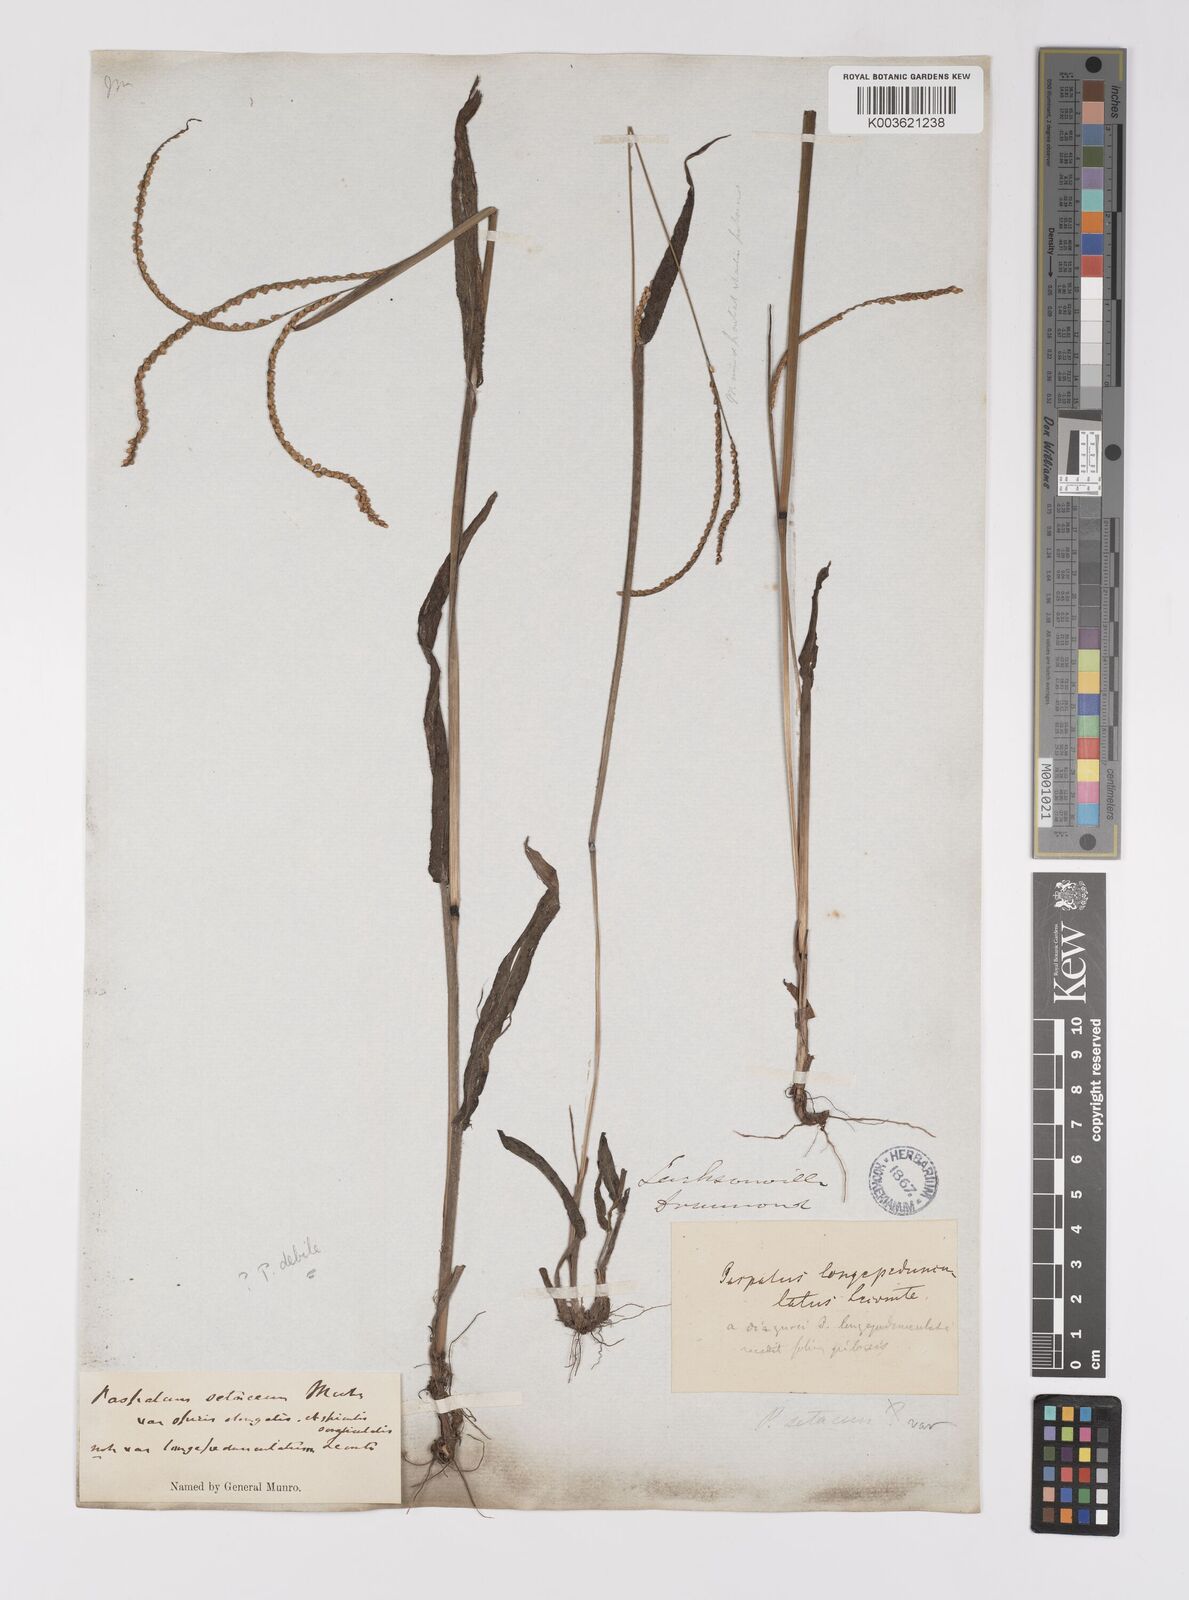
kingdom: Plantae
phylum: Tracheophyta
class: Liliopsida
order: Poales
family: Poaceae
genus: Paspalum
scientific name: Paspalum setaceum
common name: Slender paspalum
